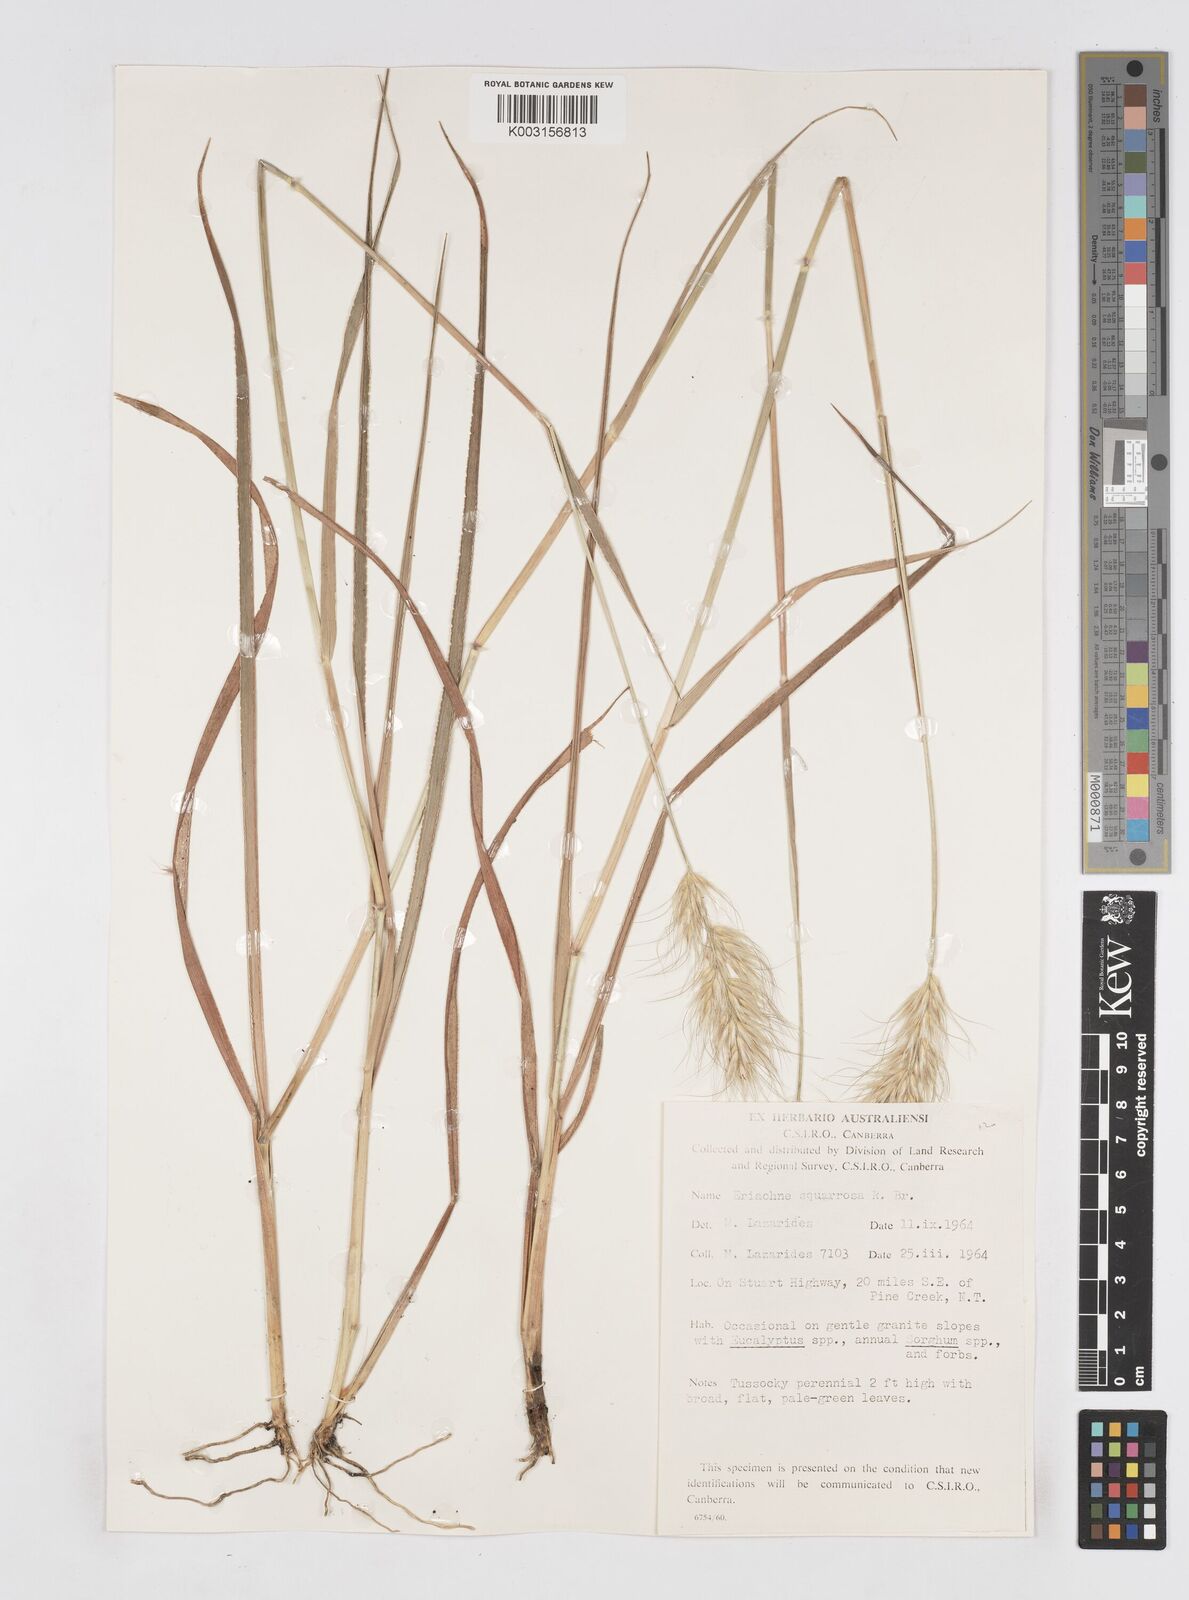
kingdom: Plantae
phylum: Tracheophyta
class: Liliopsida
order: Poales
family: Poaceae
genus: Eriachne
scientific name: Eriachne squarrosa
